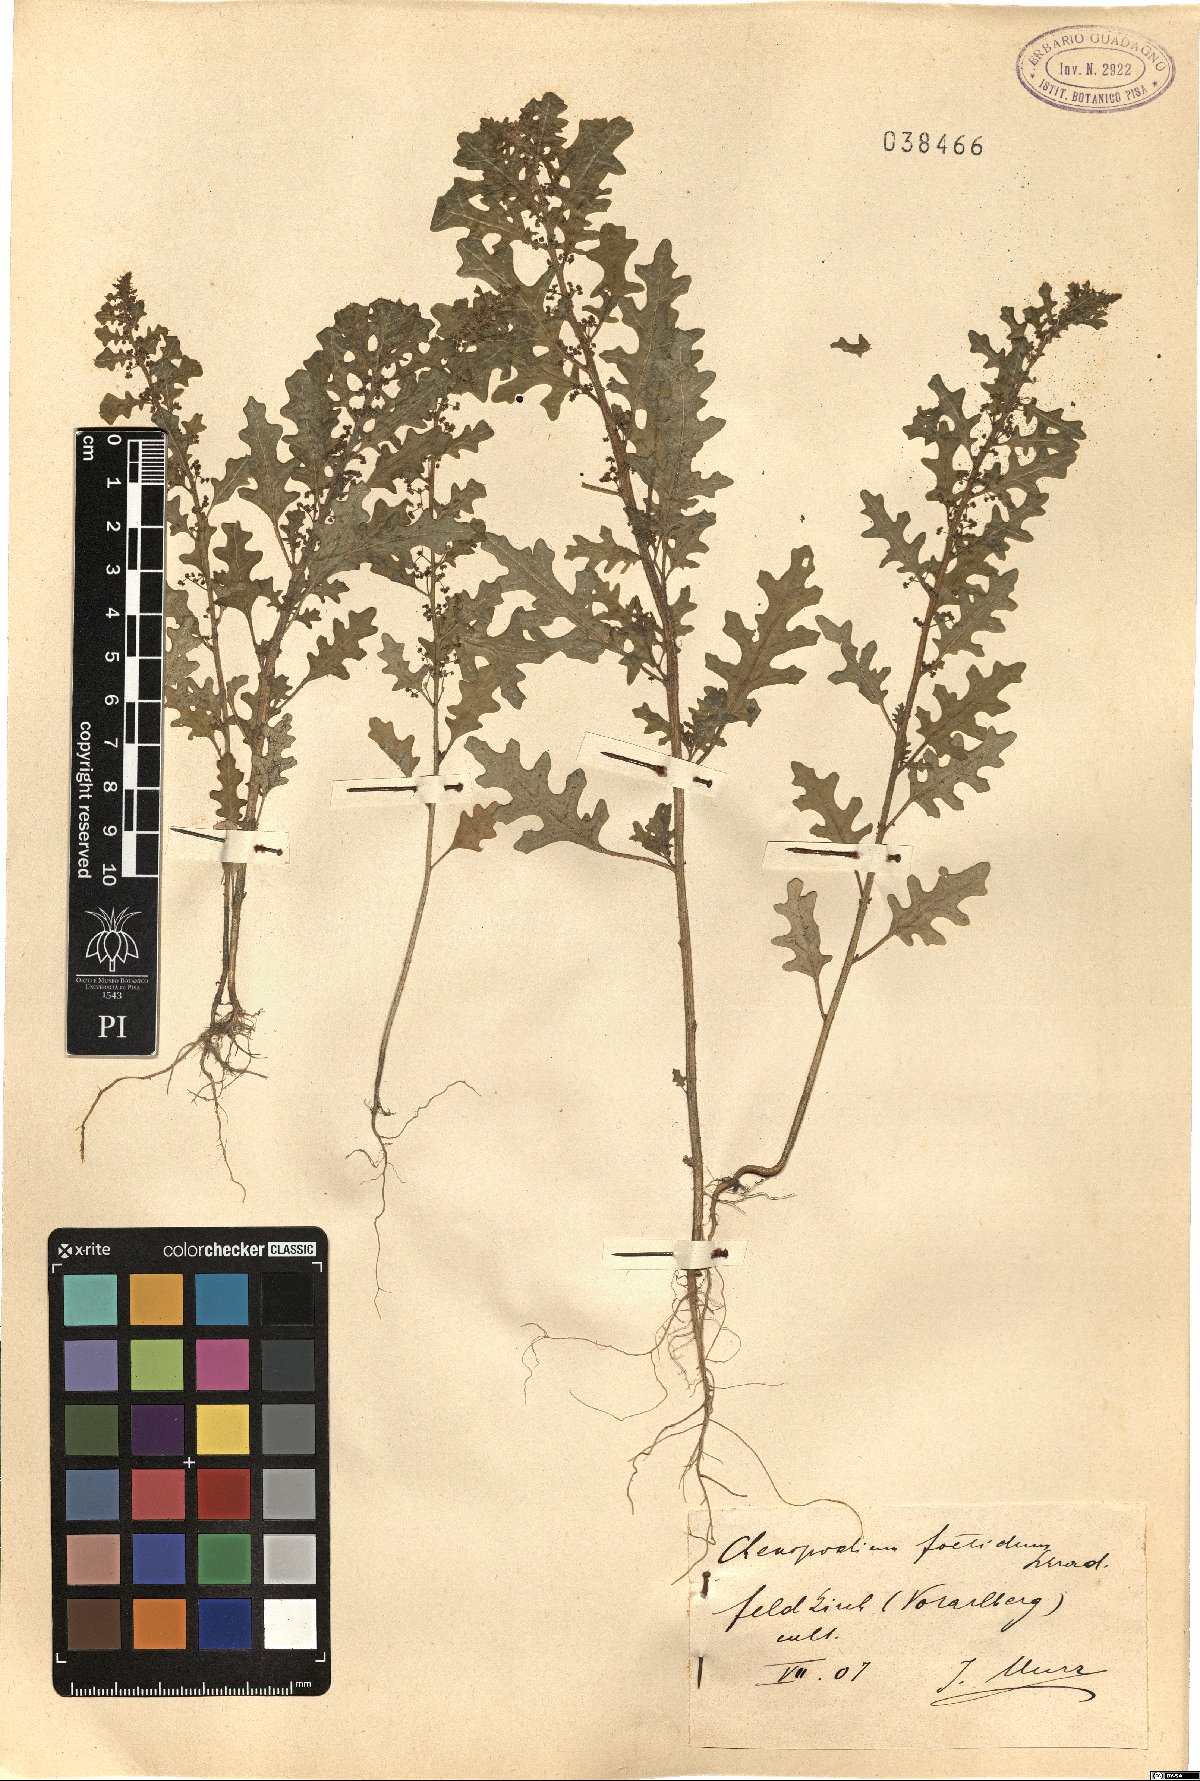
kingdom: Plantae
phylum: Tracheophyta
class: Magnoliopsida
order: Caryophyllales
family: Amaranthaceae
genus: Dysphania
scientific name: Dysphania schraderiana
